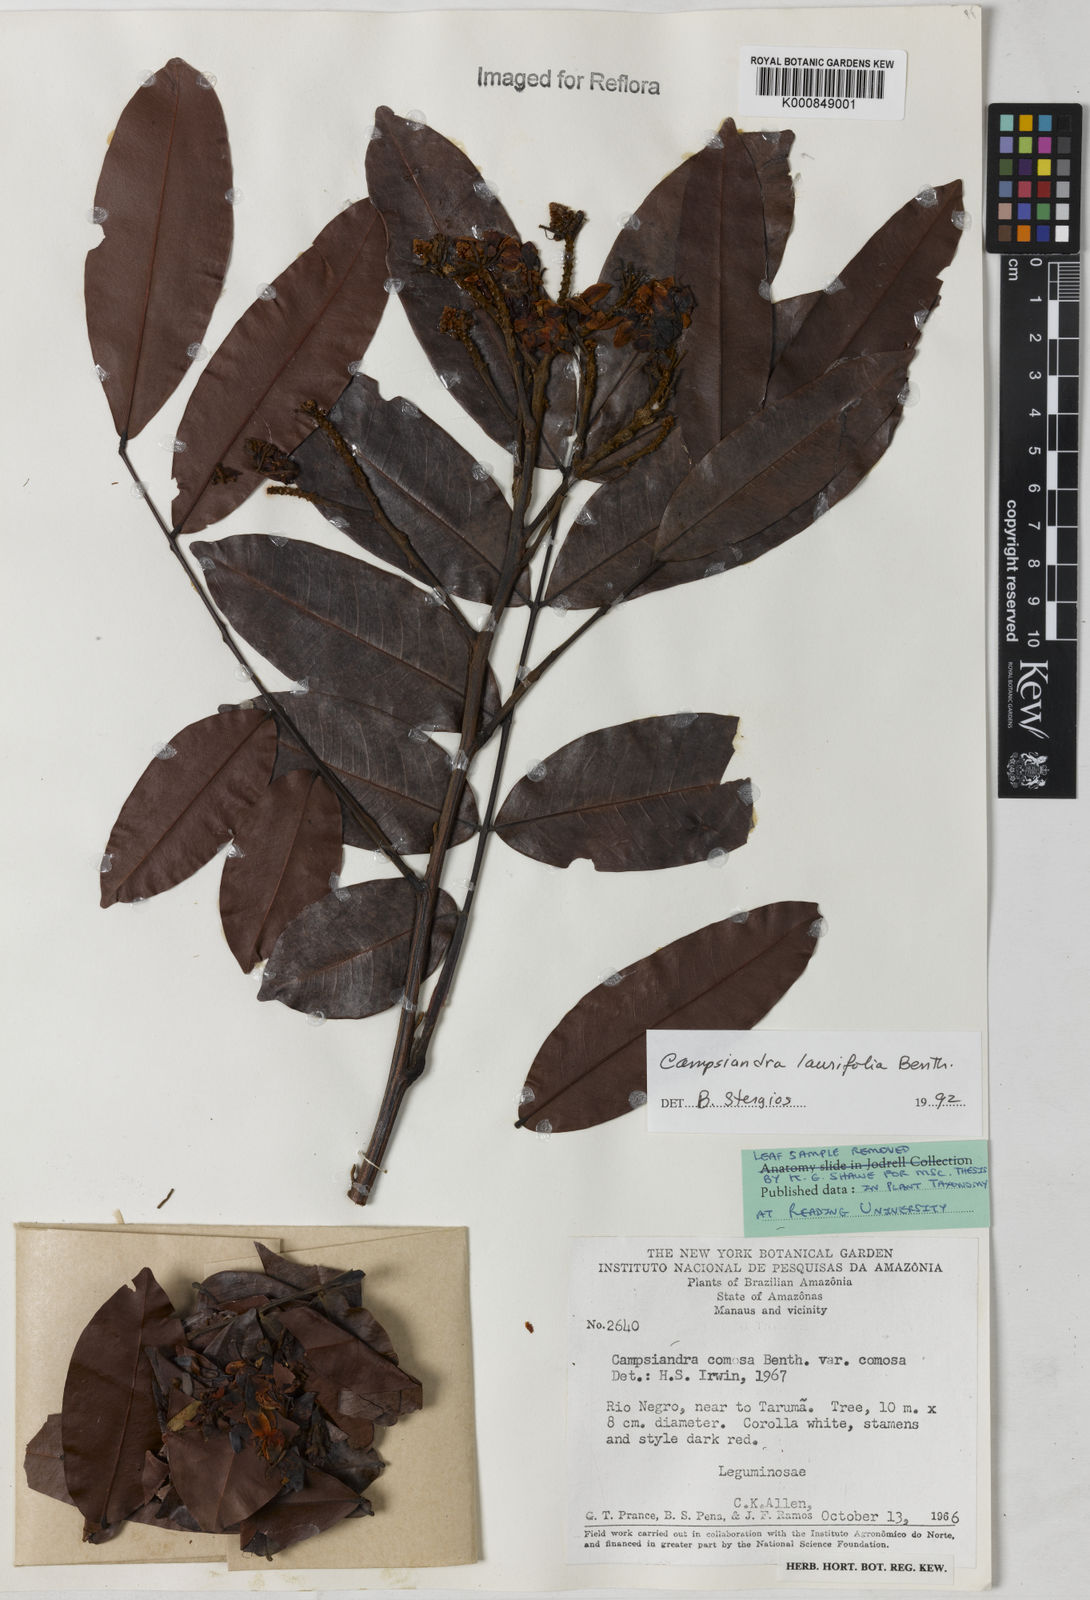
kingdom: Plantae
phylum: Tracheophyta
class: Magnoliopsida
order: Fabales
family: Fabaceae
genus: Campsiandra
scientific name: Campsiandra laurifolia
